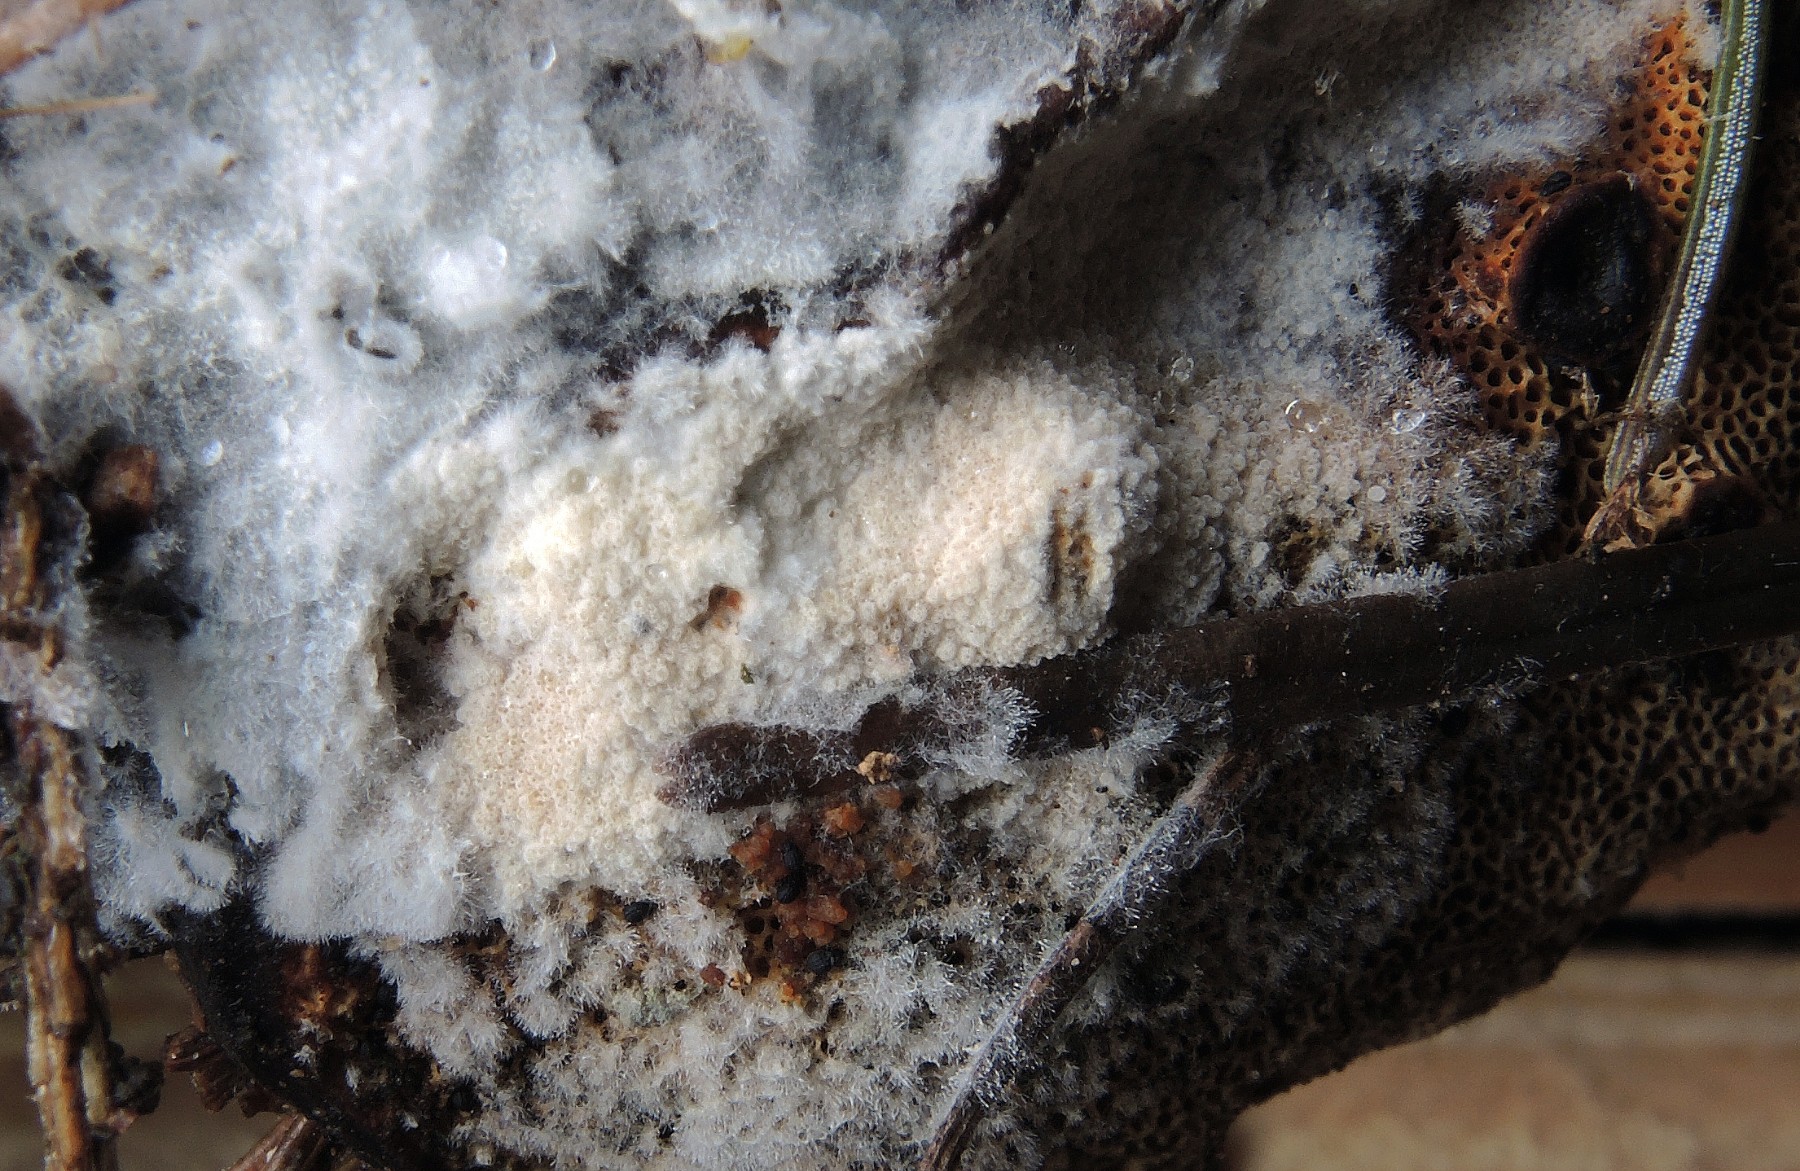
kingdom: Fungi
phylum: Ascomycota
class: Sordariomycetes
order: Hypocreales
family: Hypocreaceae
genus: Sphaerostilbella
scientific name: Sphaerostilbella broomeana
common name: rodfordærver-snylteskorpe
